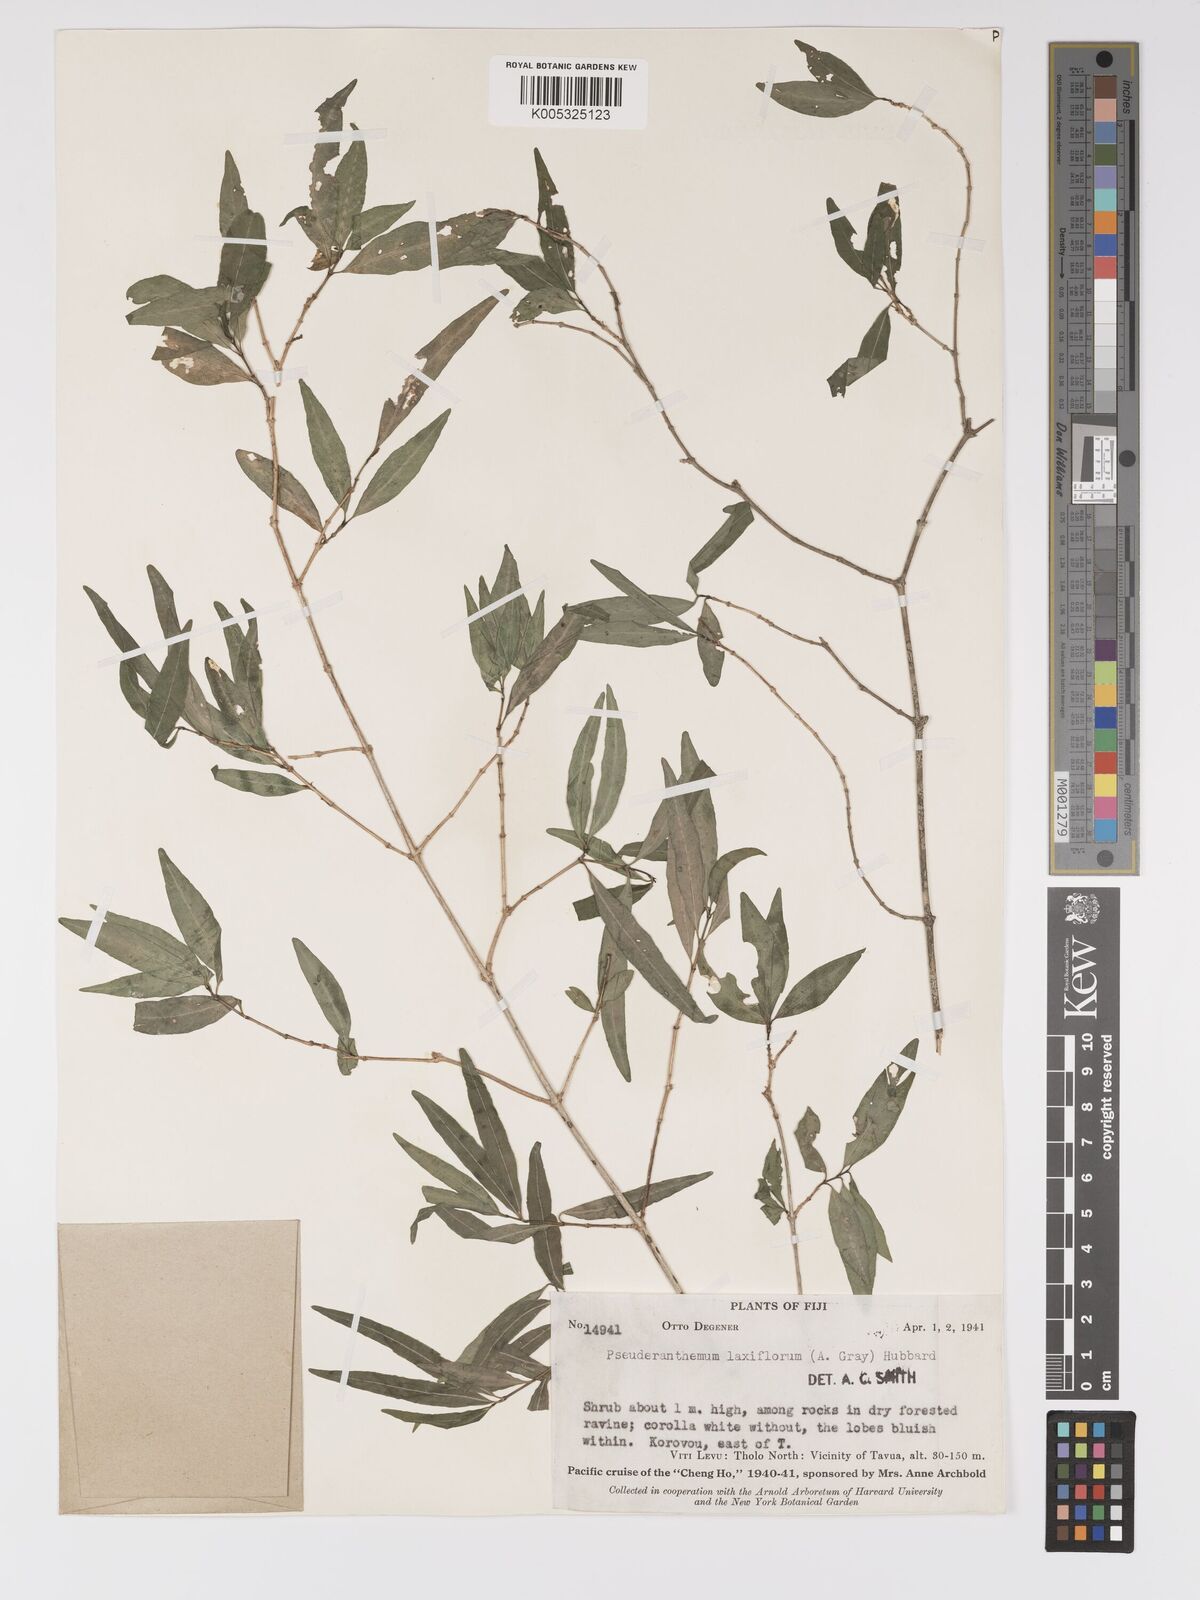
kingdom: Plantae
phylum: Tracheophyta
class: Magnoliopsida
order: Lamiales
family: Acanthaceae
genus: Pseuderanthemum
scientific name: Pseuderanthemum laxiflorum
